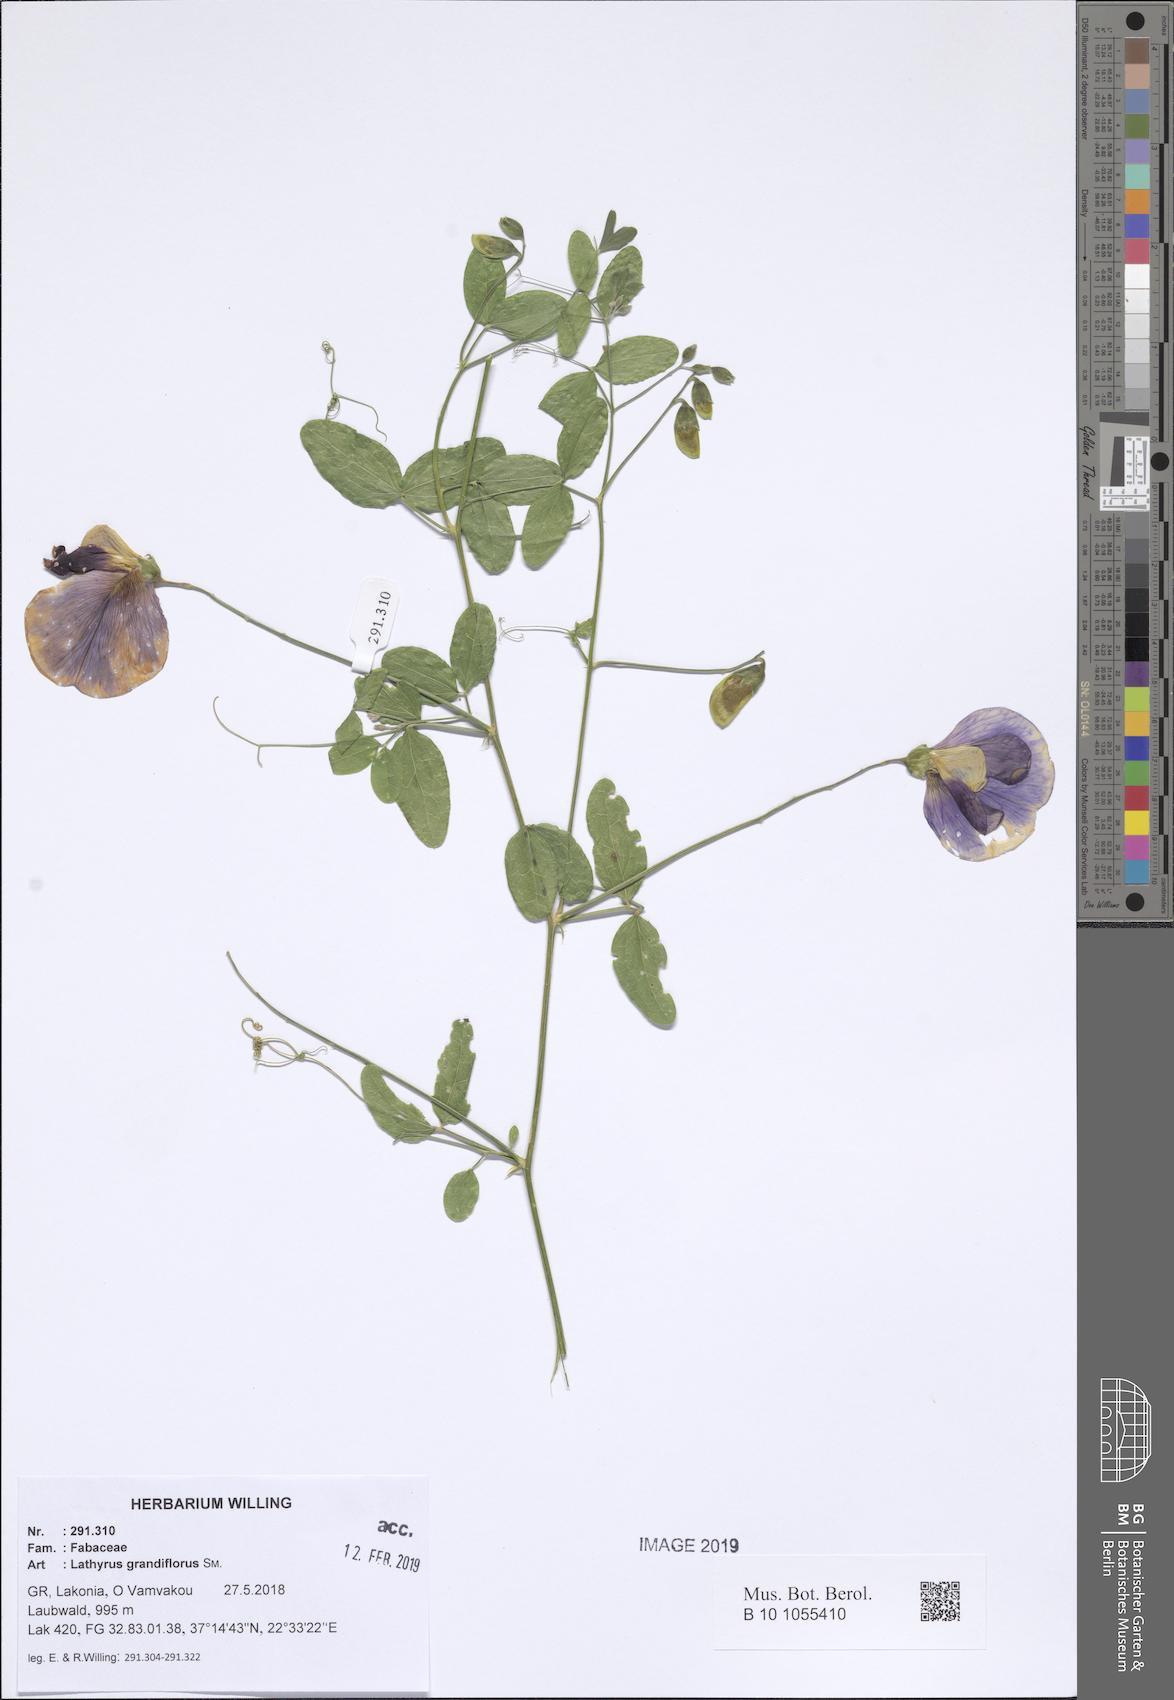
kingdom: Plantae
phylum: Tracheophyta
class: Magnoliopsida
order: Fabales
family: Fabaceae
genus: Lathyrus
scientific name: Lathyrus grandiflorus
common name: Two-flowered everlasting-pea
